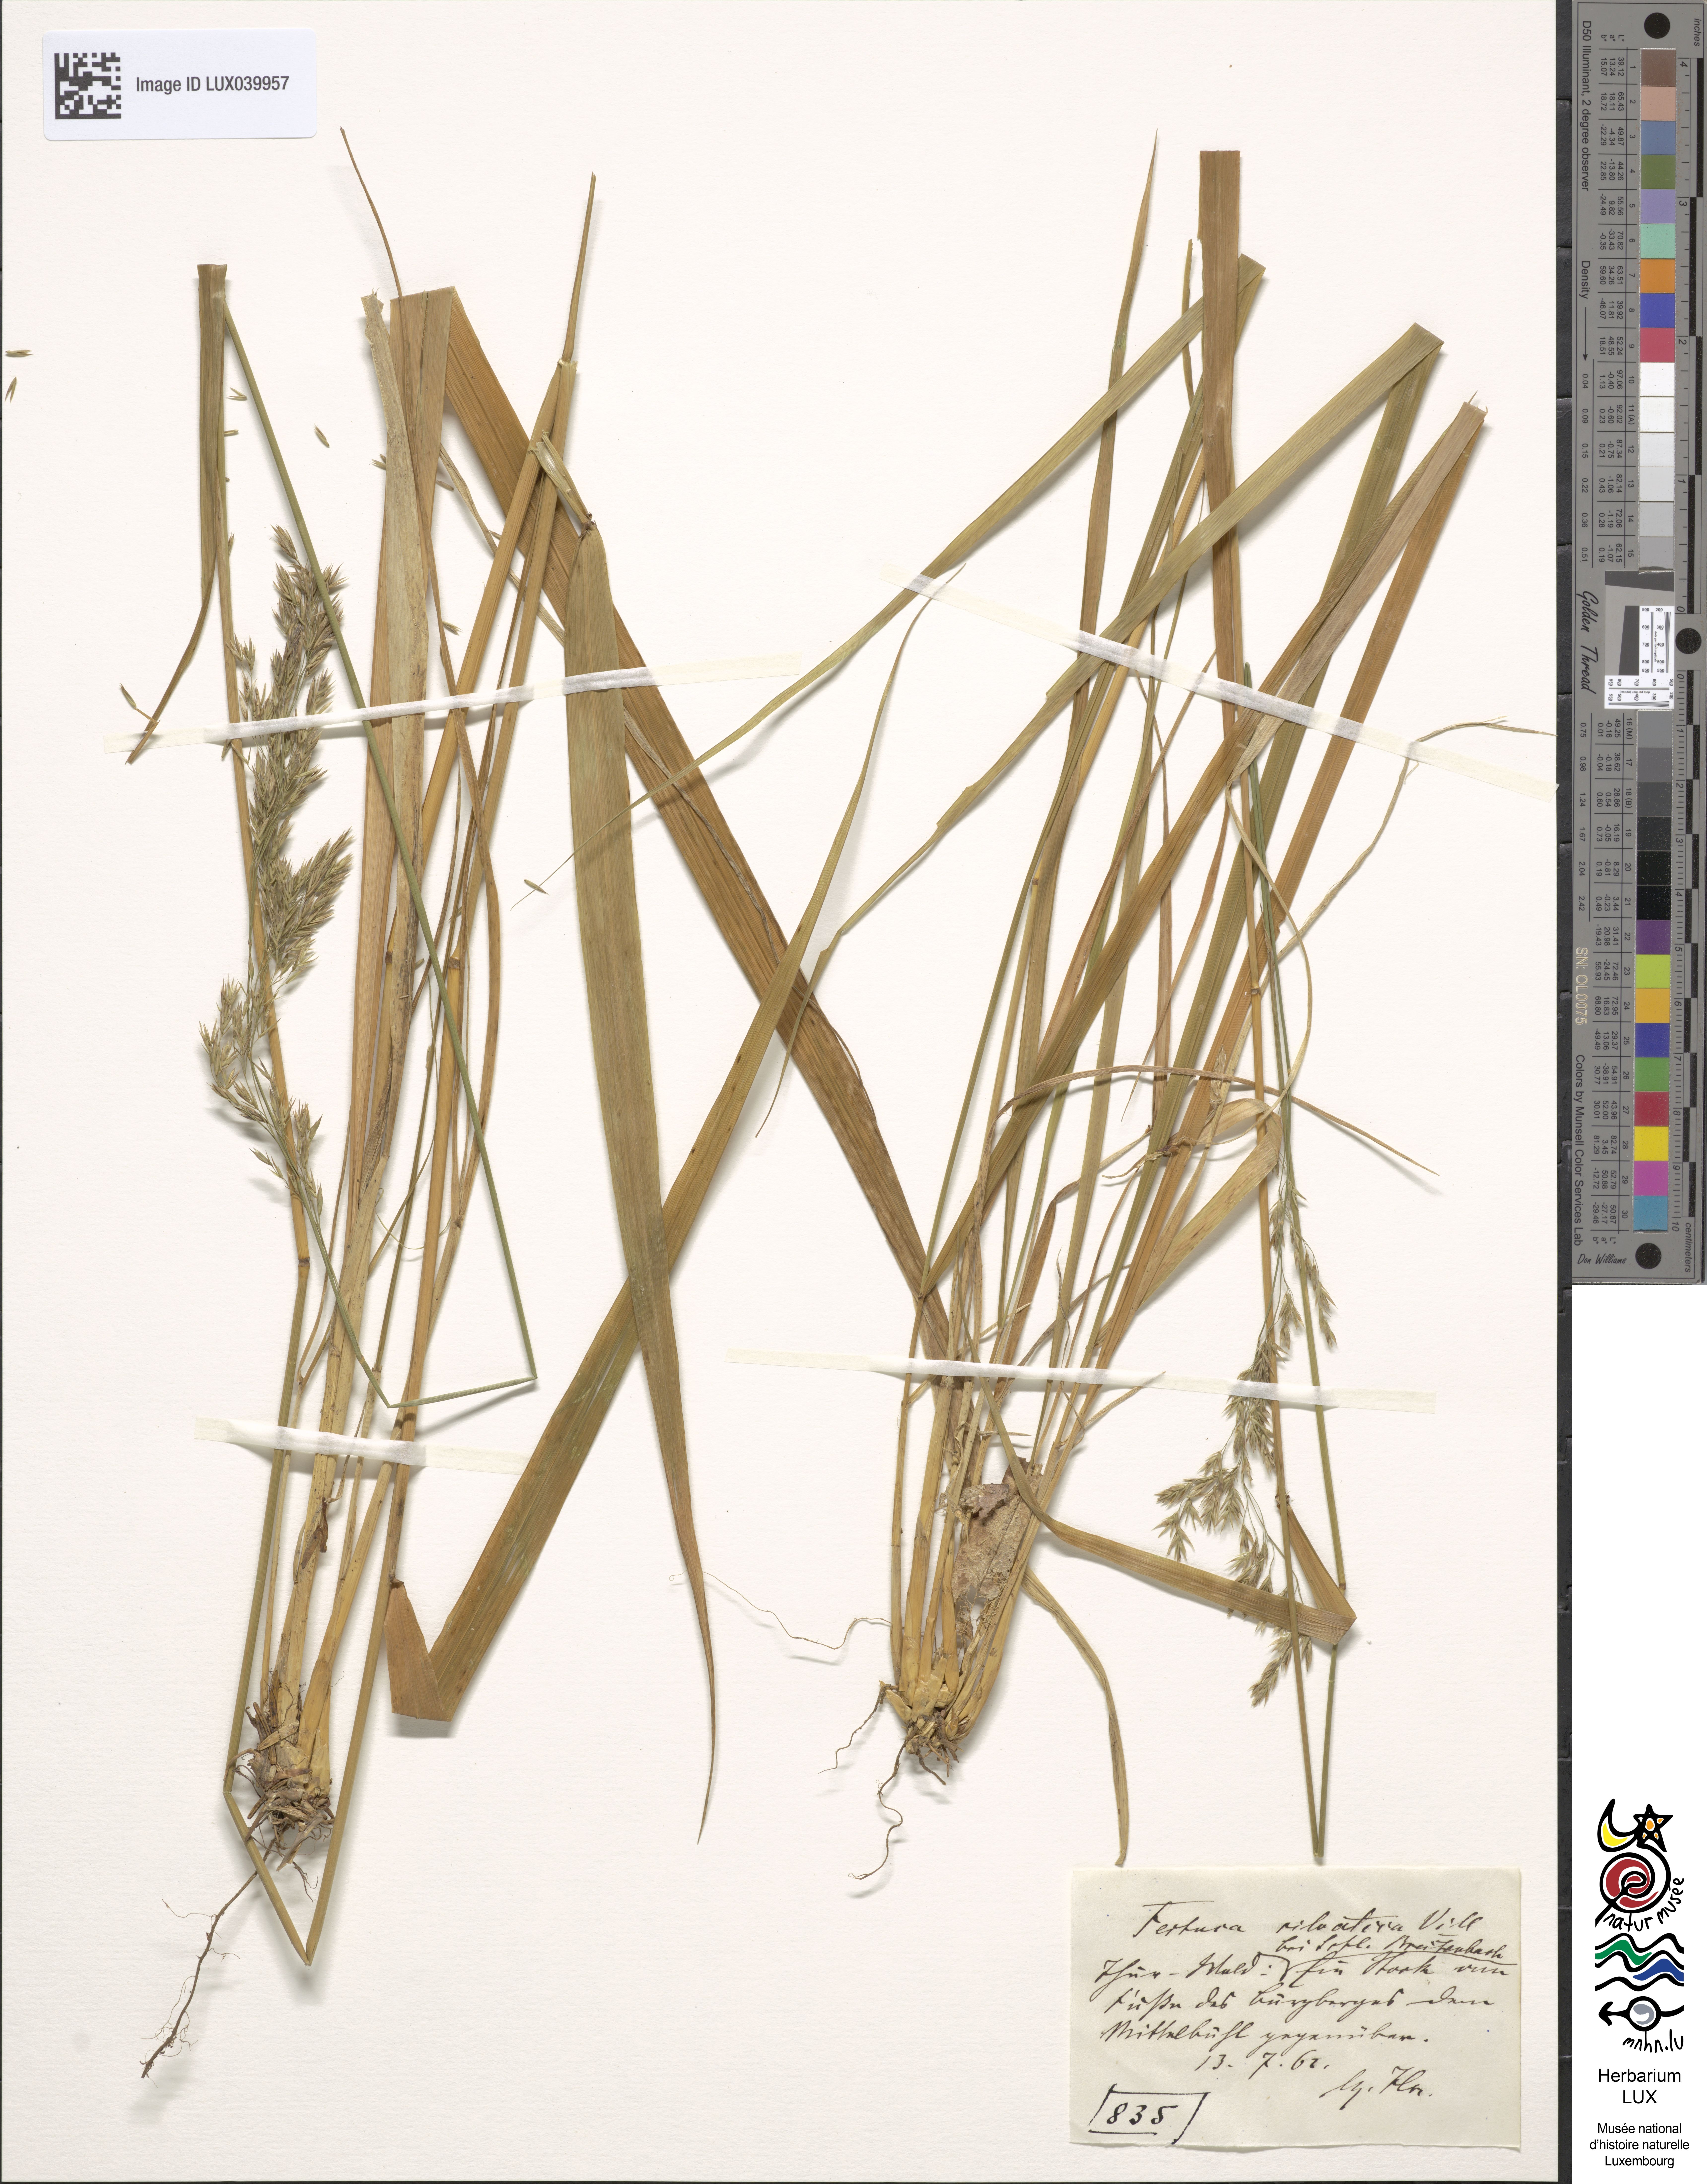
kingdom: Plantae
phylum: Tracheophyta
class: Liliopsida
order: Poales
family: Poaceae
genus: Festuca
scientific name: Festuca altissima
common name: Wood fescue
